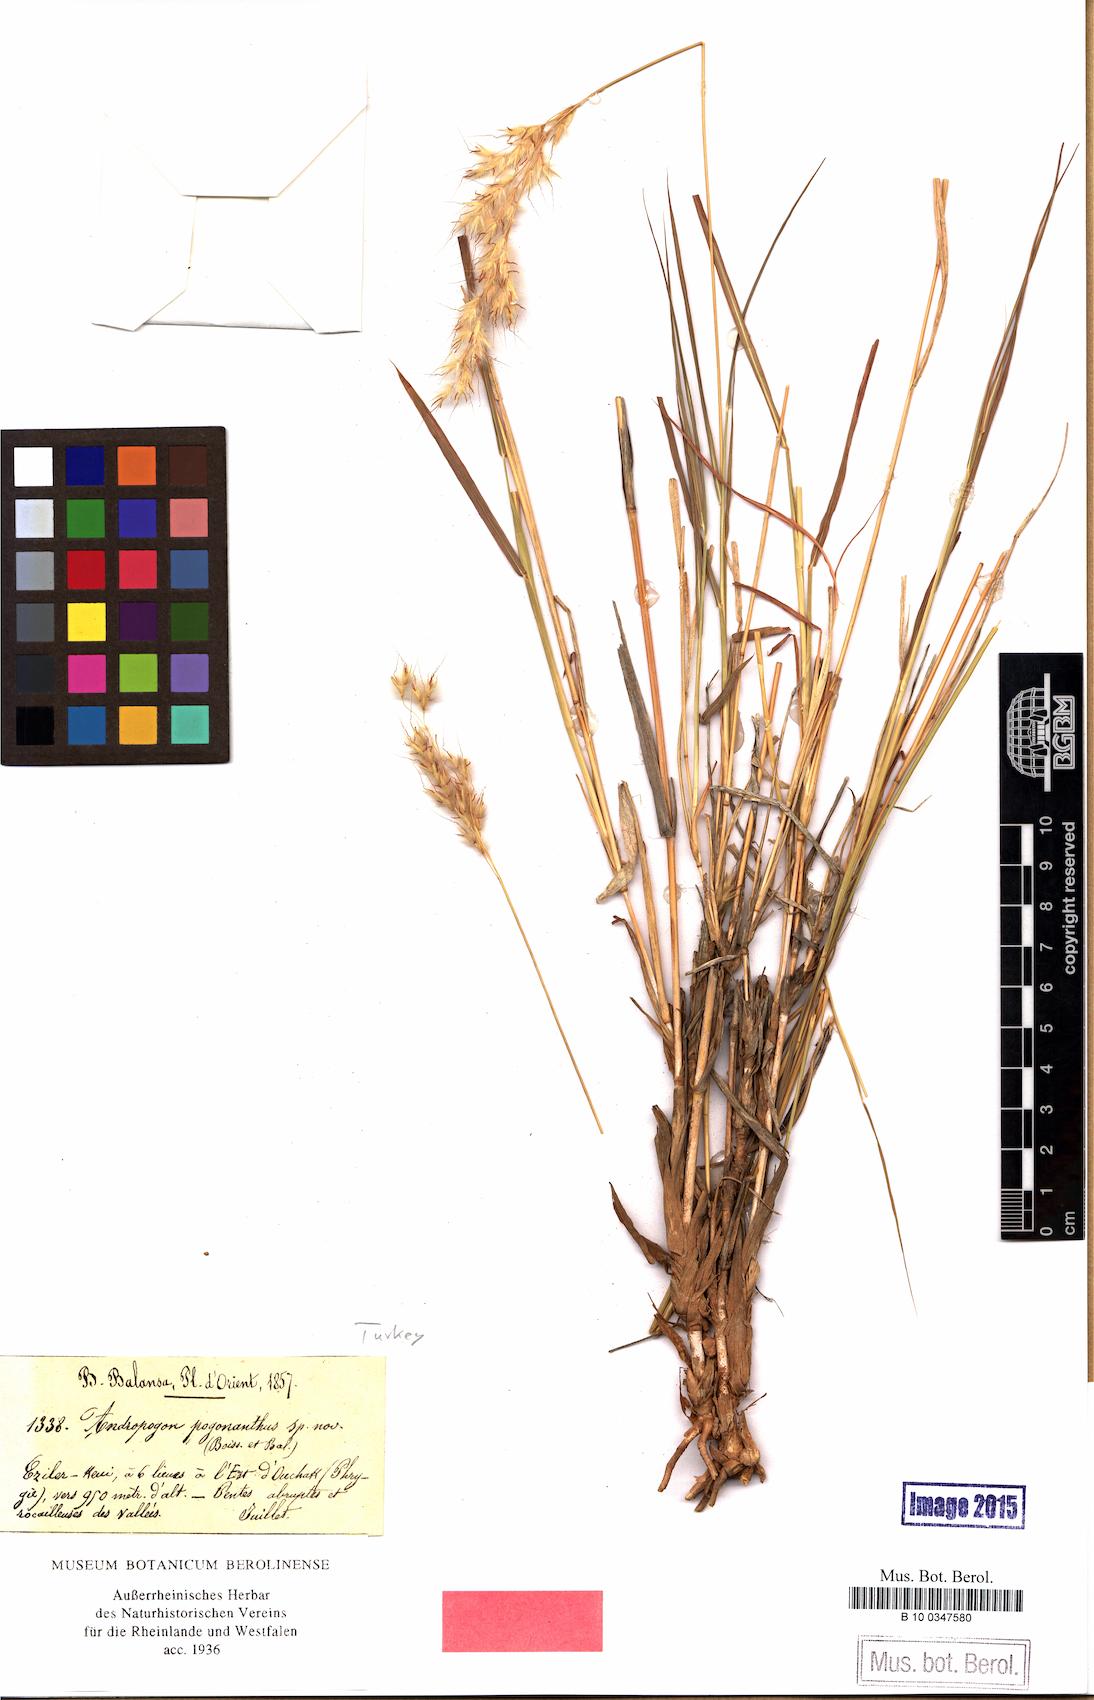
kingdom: Plantae
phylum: Tracheophyta
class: Liliopsida
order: Poales
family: Poaceae
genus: Spodiopogon
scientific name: Spodiopogon pogonanthus
